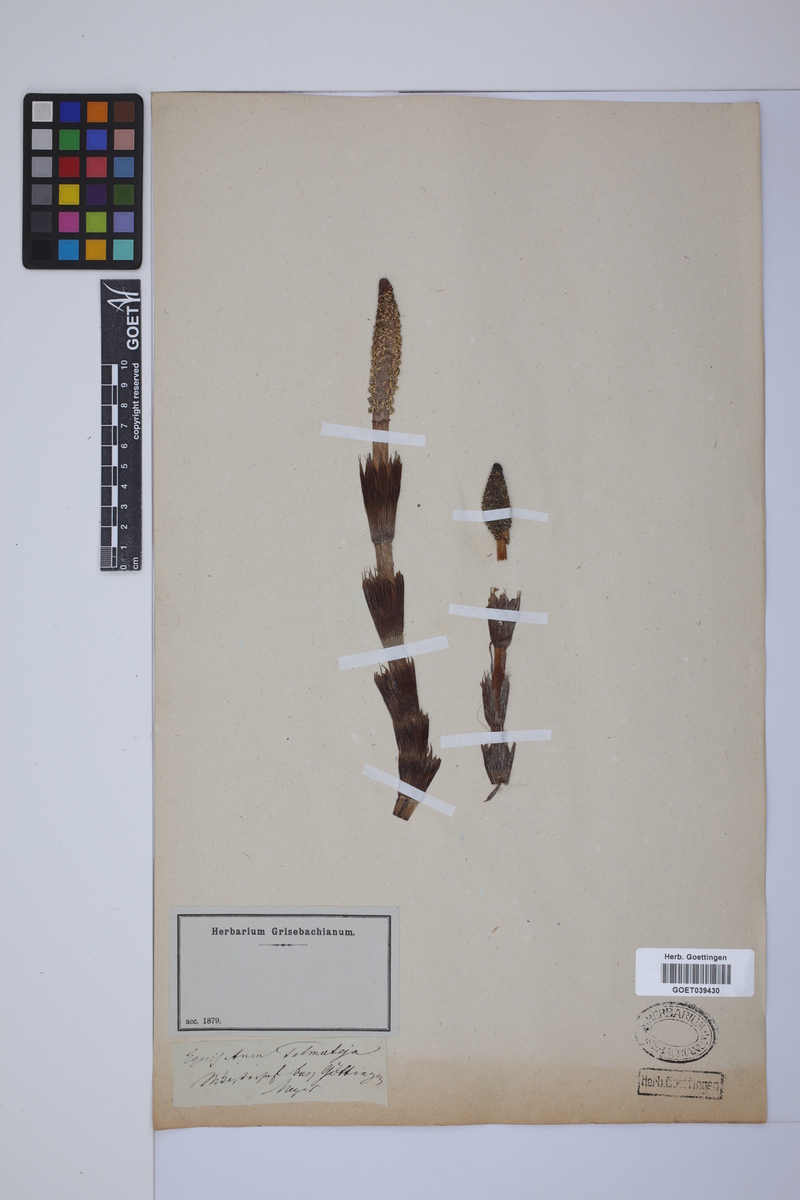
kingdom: Plantae
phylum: Tracheophyta
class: Polypodiopsida
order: Equisetales
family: Equisetaceae
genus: Equisetum
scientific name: Equisetum telmateia
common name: Great horsetail
